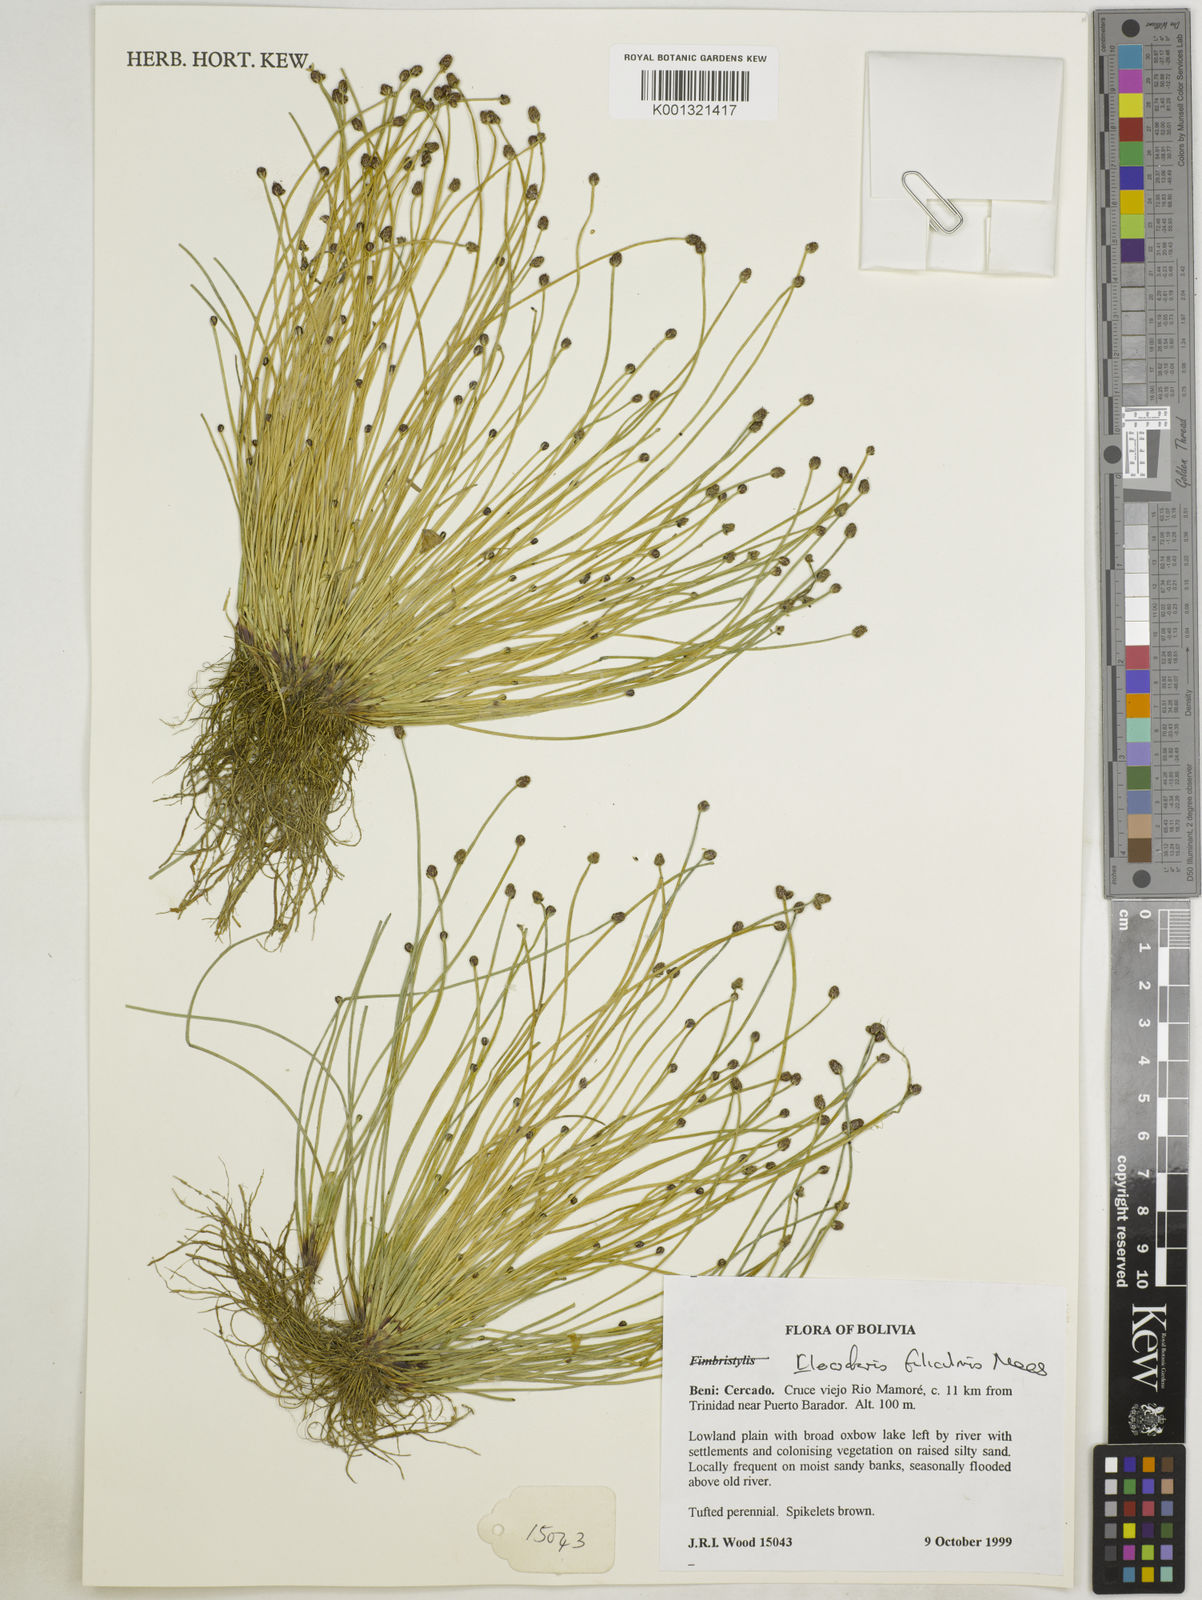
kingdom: Plantae
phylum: Tracheophyta
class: Liliopsida
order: Poales
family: Cyperaceae
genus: Eleocharis
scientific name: Eleocharis filiculmis
